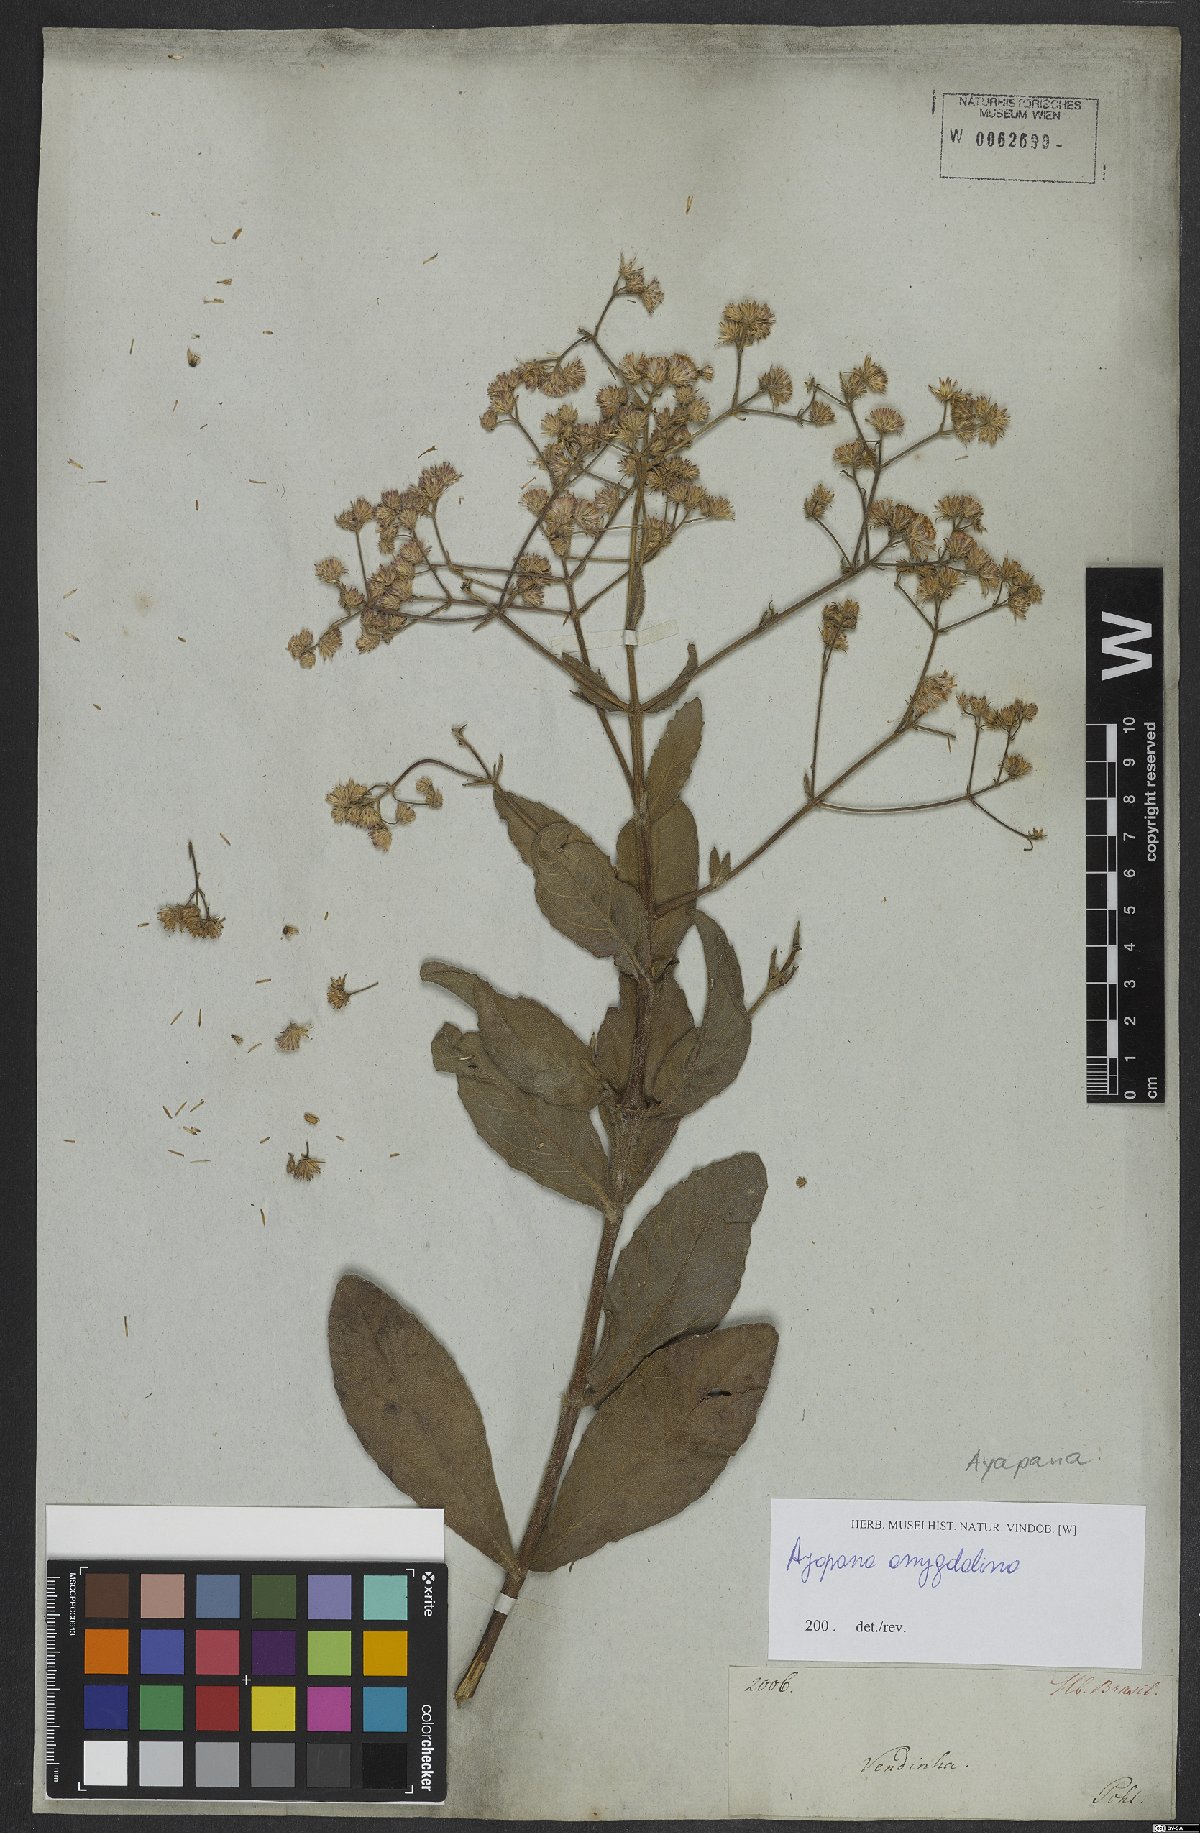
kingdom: Plantae
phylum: Tracheophyta
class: Magnoliopsida
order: Asterales
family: Asteraceae
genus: Ayapana
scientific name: Ayapana amygdalina
